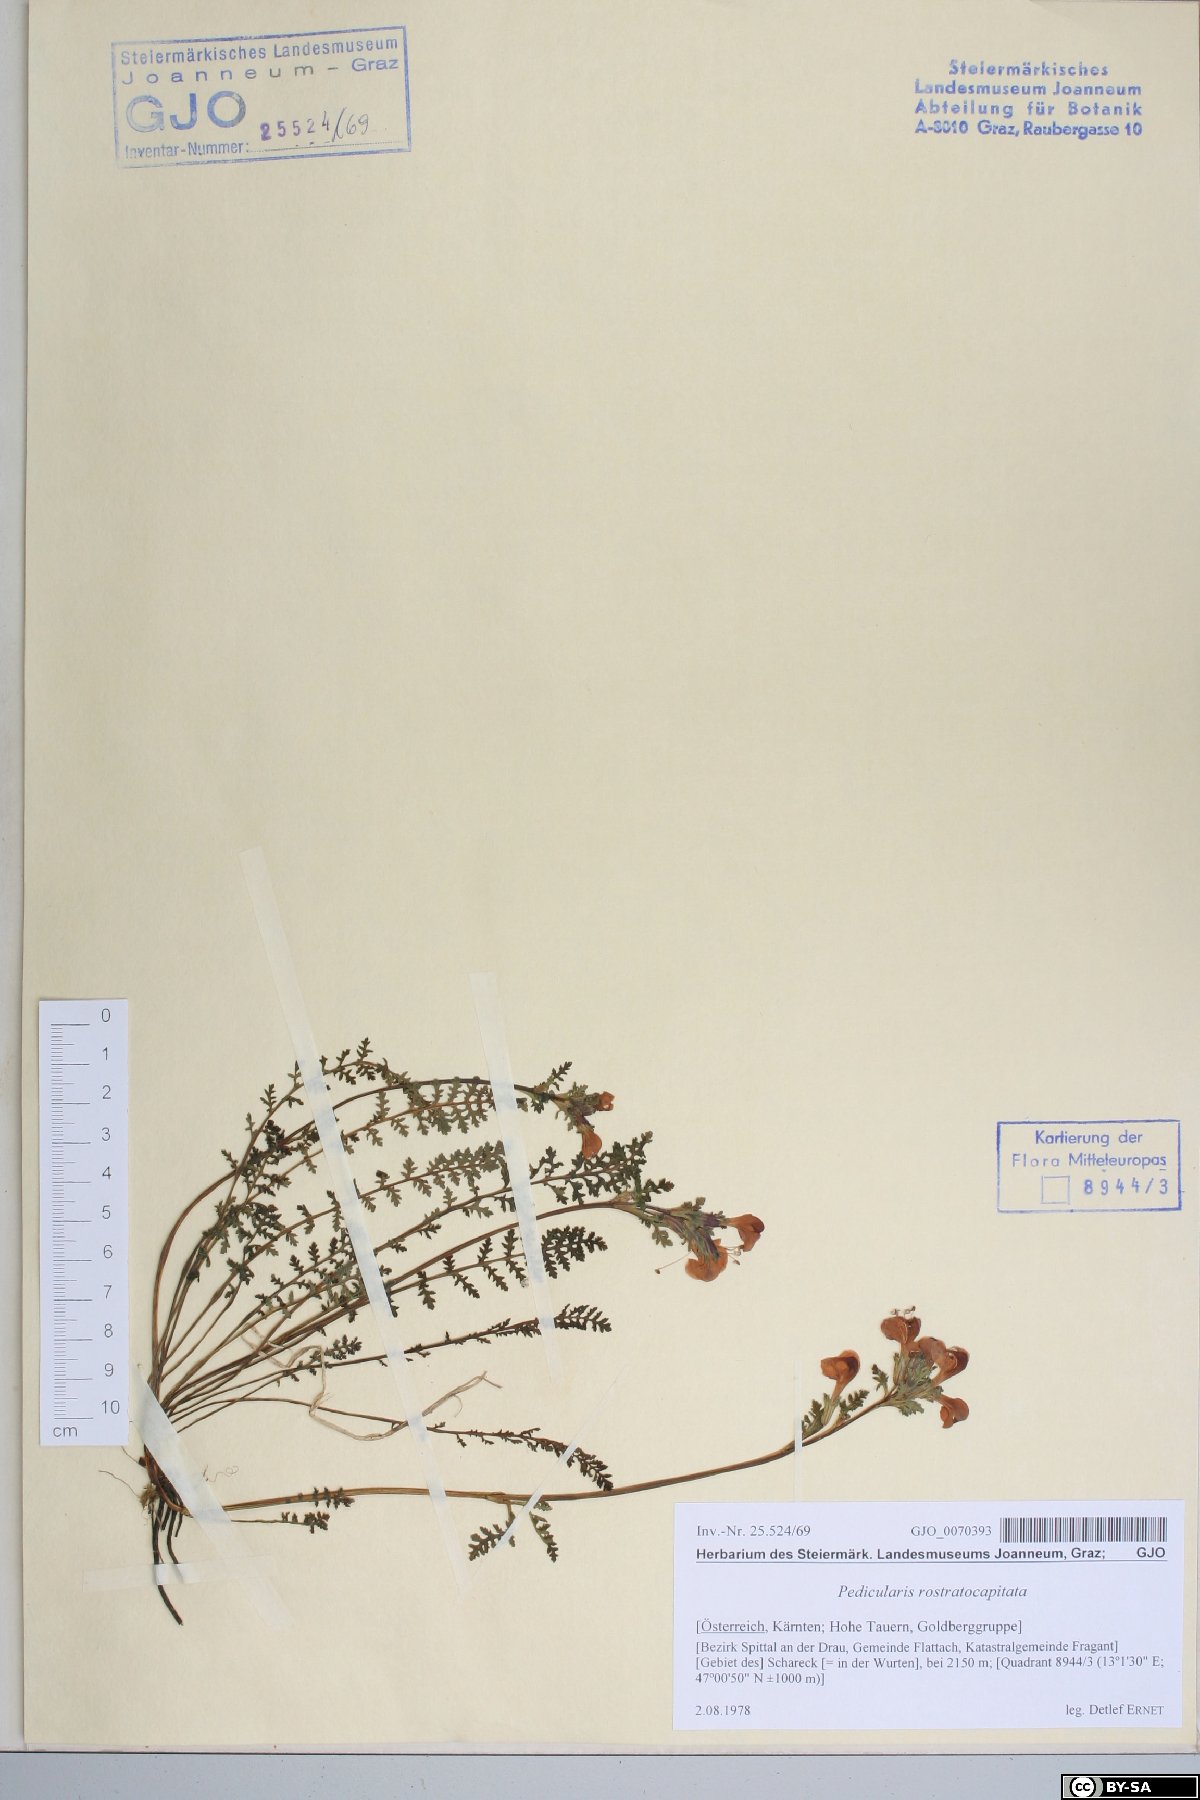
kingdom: Plantae
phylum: Tracheophyta
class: Magnoliopsida
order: Lamiales
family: Orobanchaceae
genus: Pedicularis
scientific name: Pedicularis rostratocapitata
